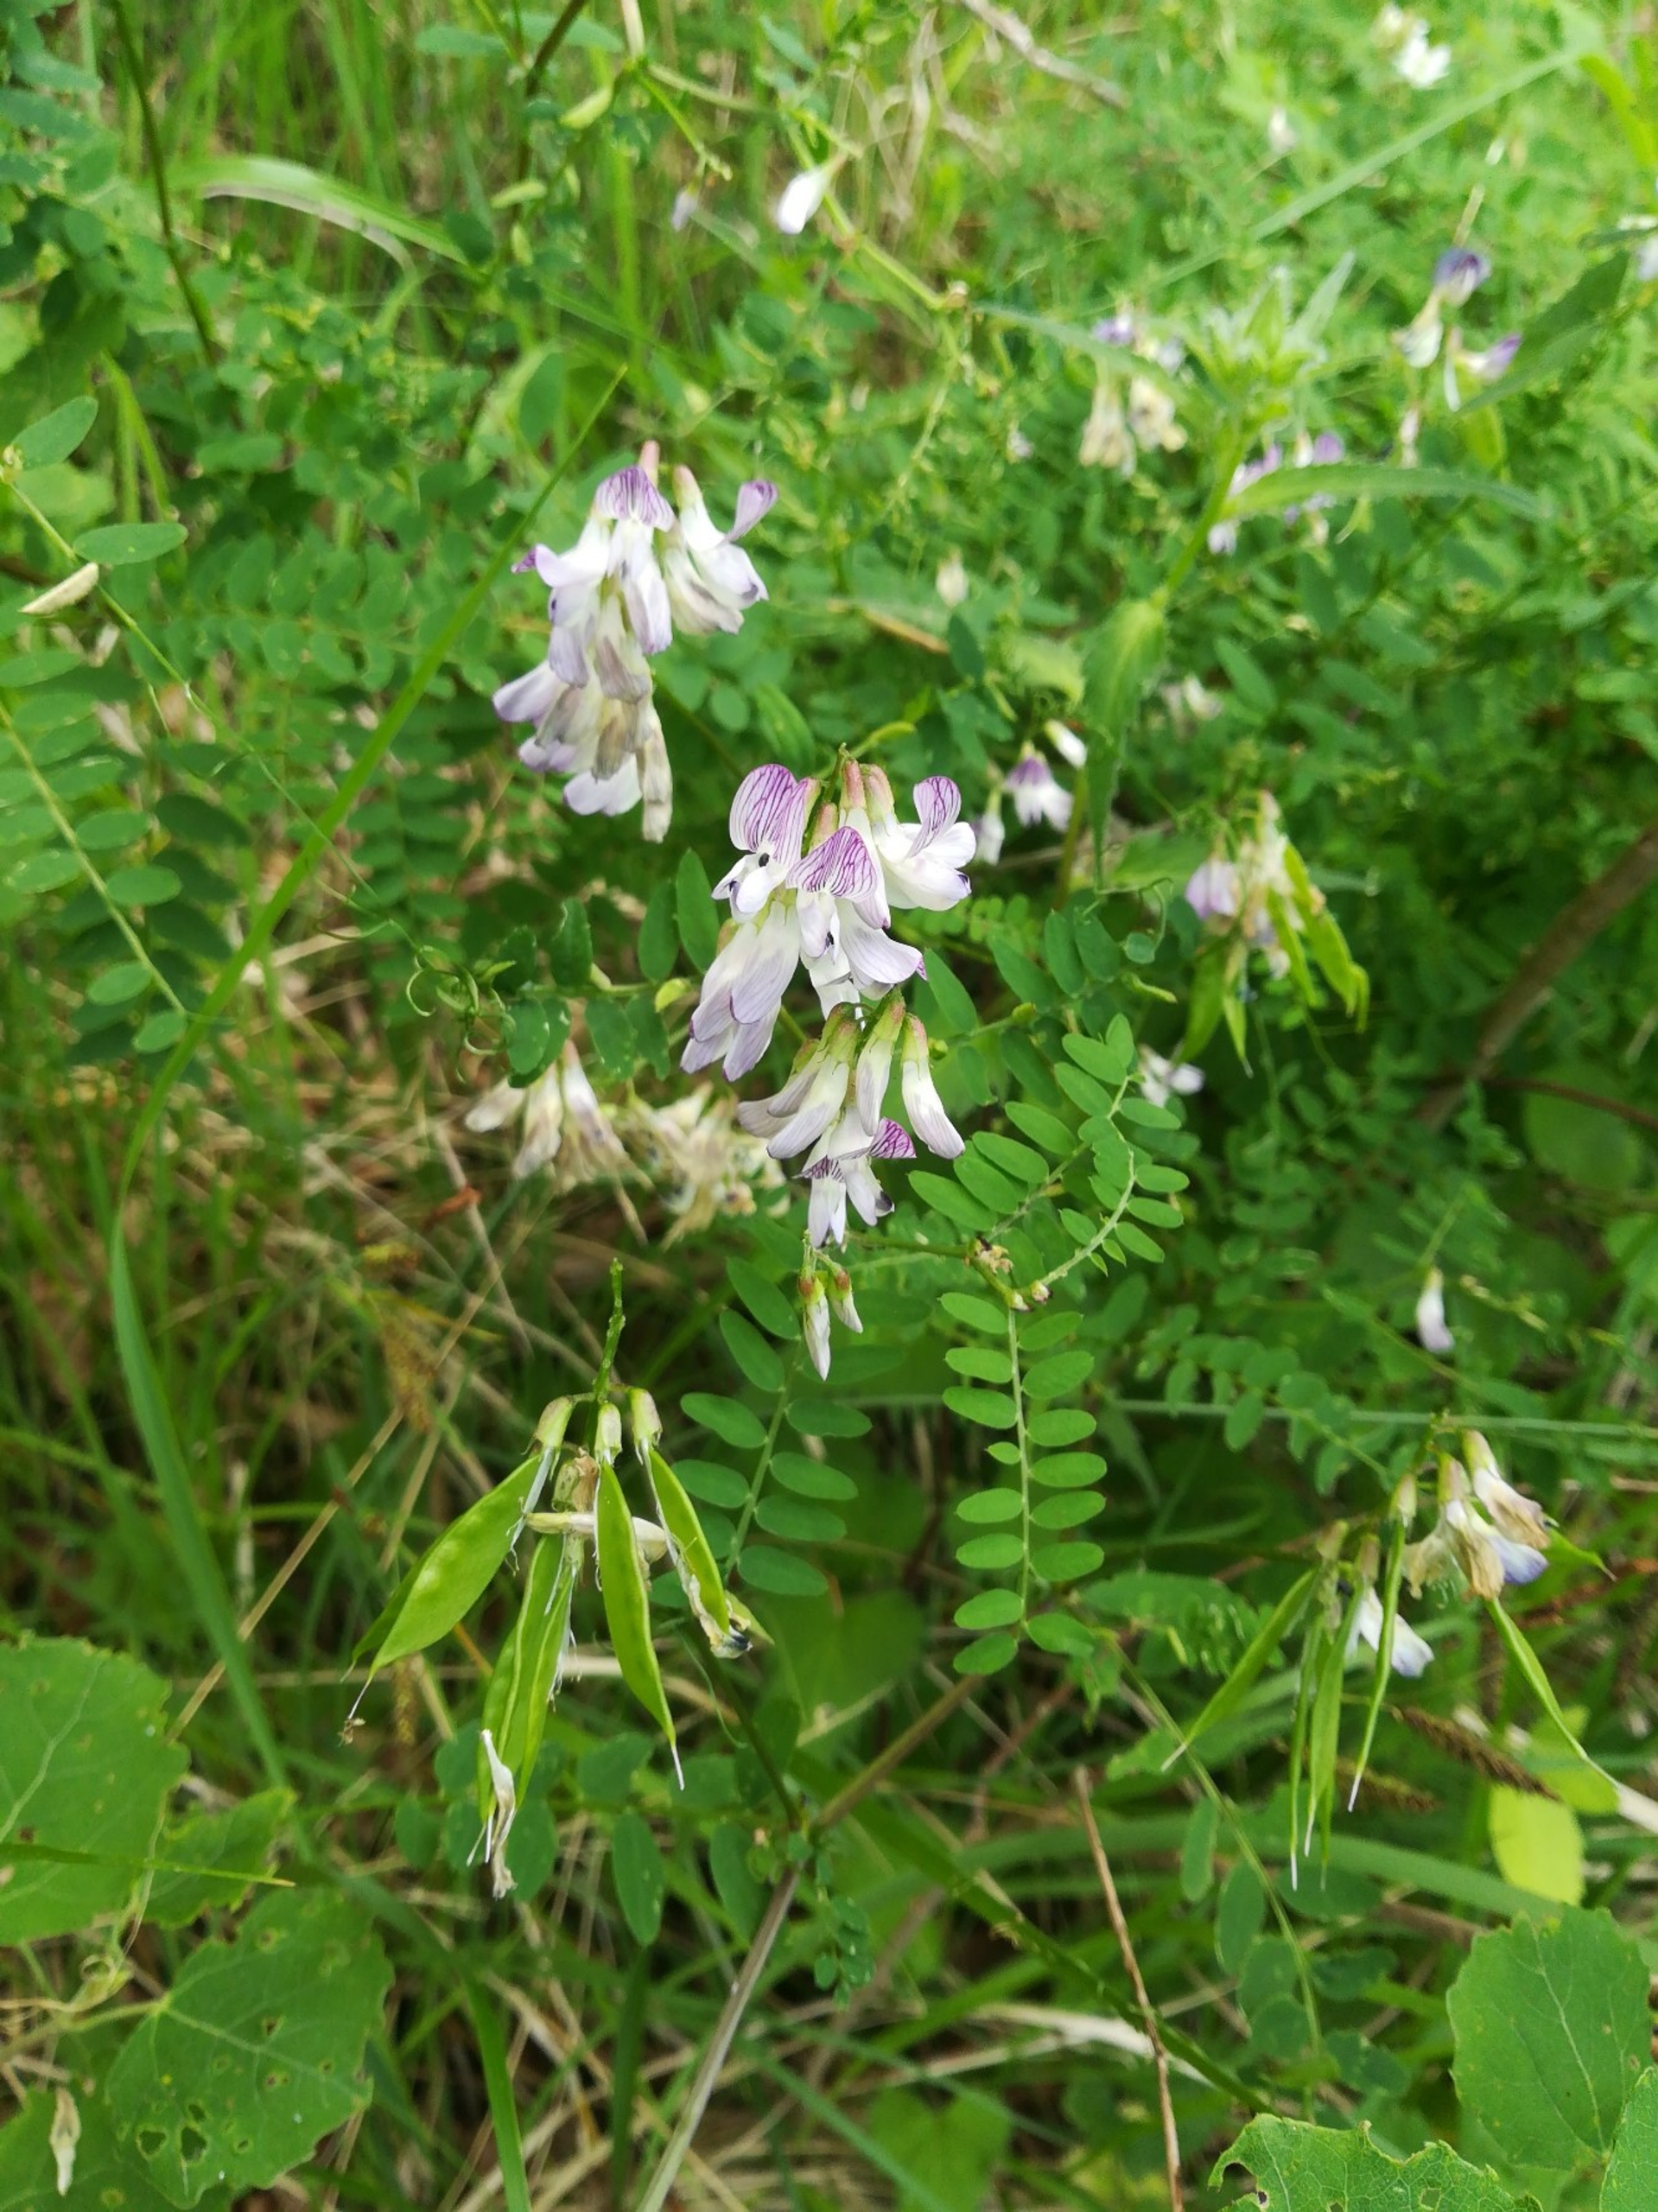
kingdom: Plantae
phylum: Tracheophyta
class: Magnoliopsida
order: Fabales
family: Fabaceae
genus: Vicia
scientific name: Vicia sylvatica
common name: Skov-vikke
